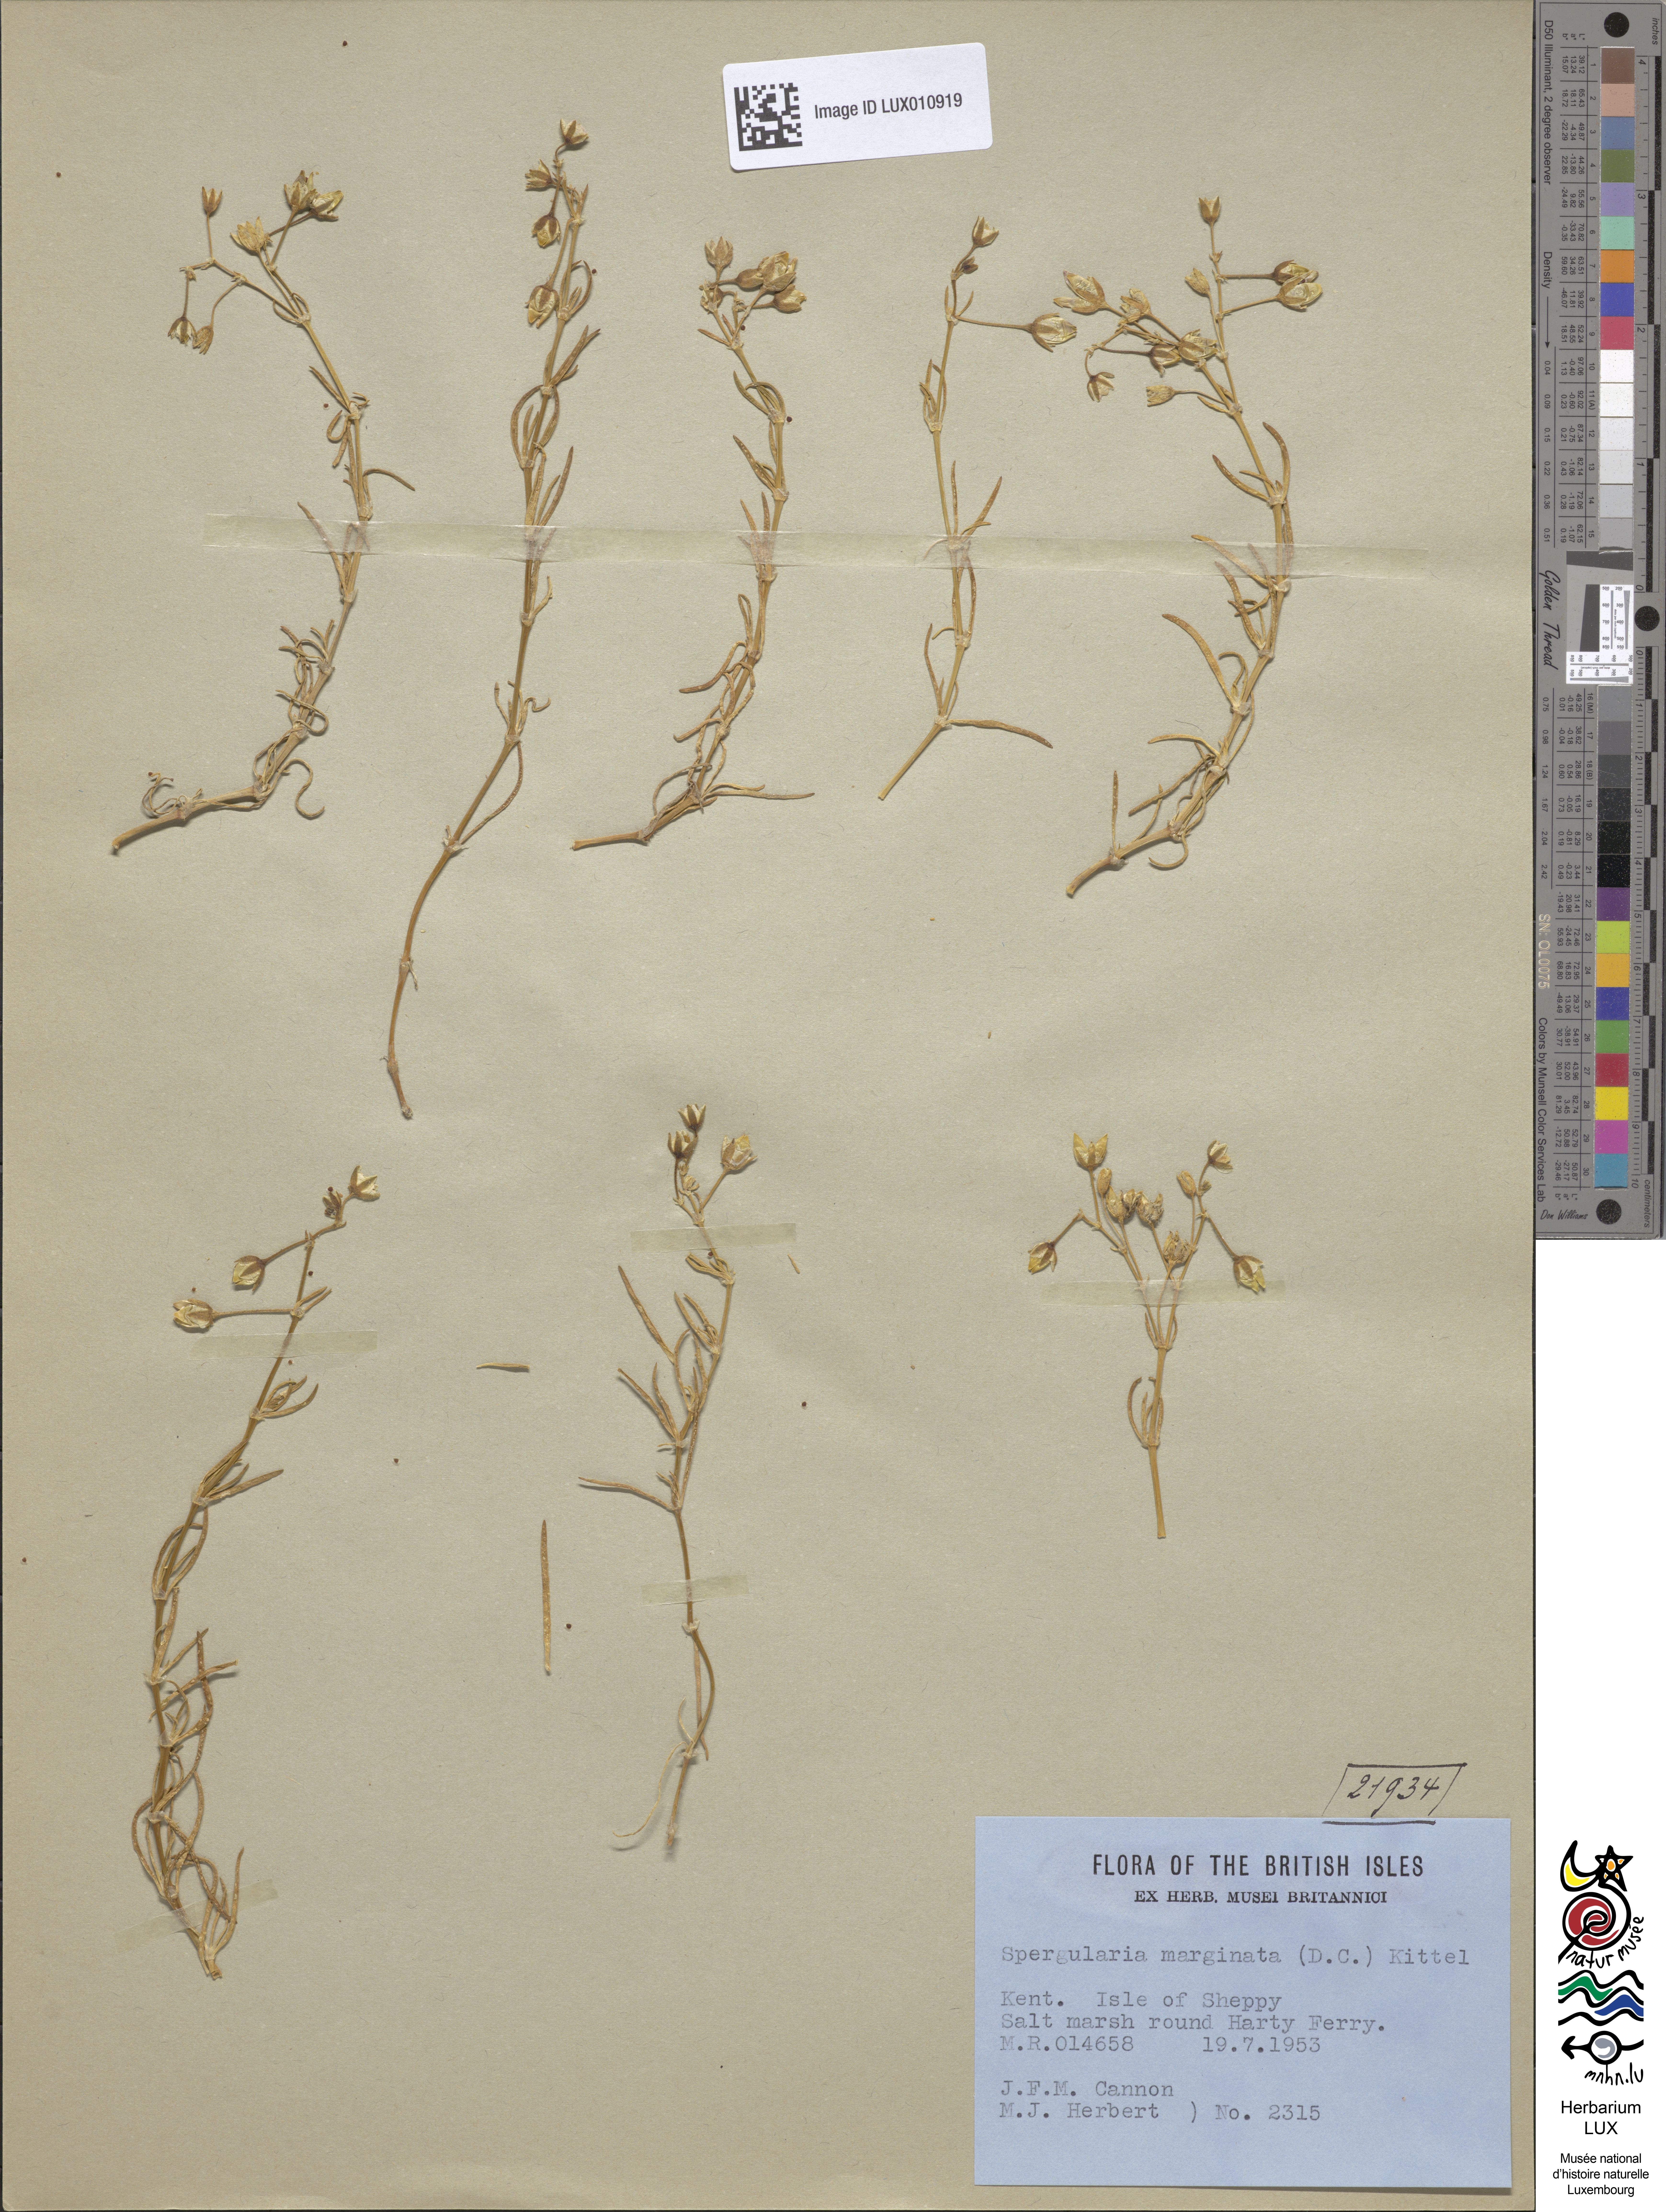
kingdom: Plantae
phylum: Tracheophyta
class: Magnoliopsida
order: Caryophyllales
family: Caryophyllaceae
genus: Spergularia
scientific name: Spergularia media
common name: Greater sea-spurrey
